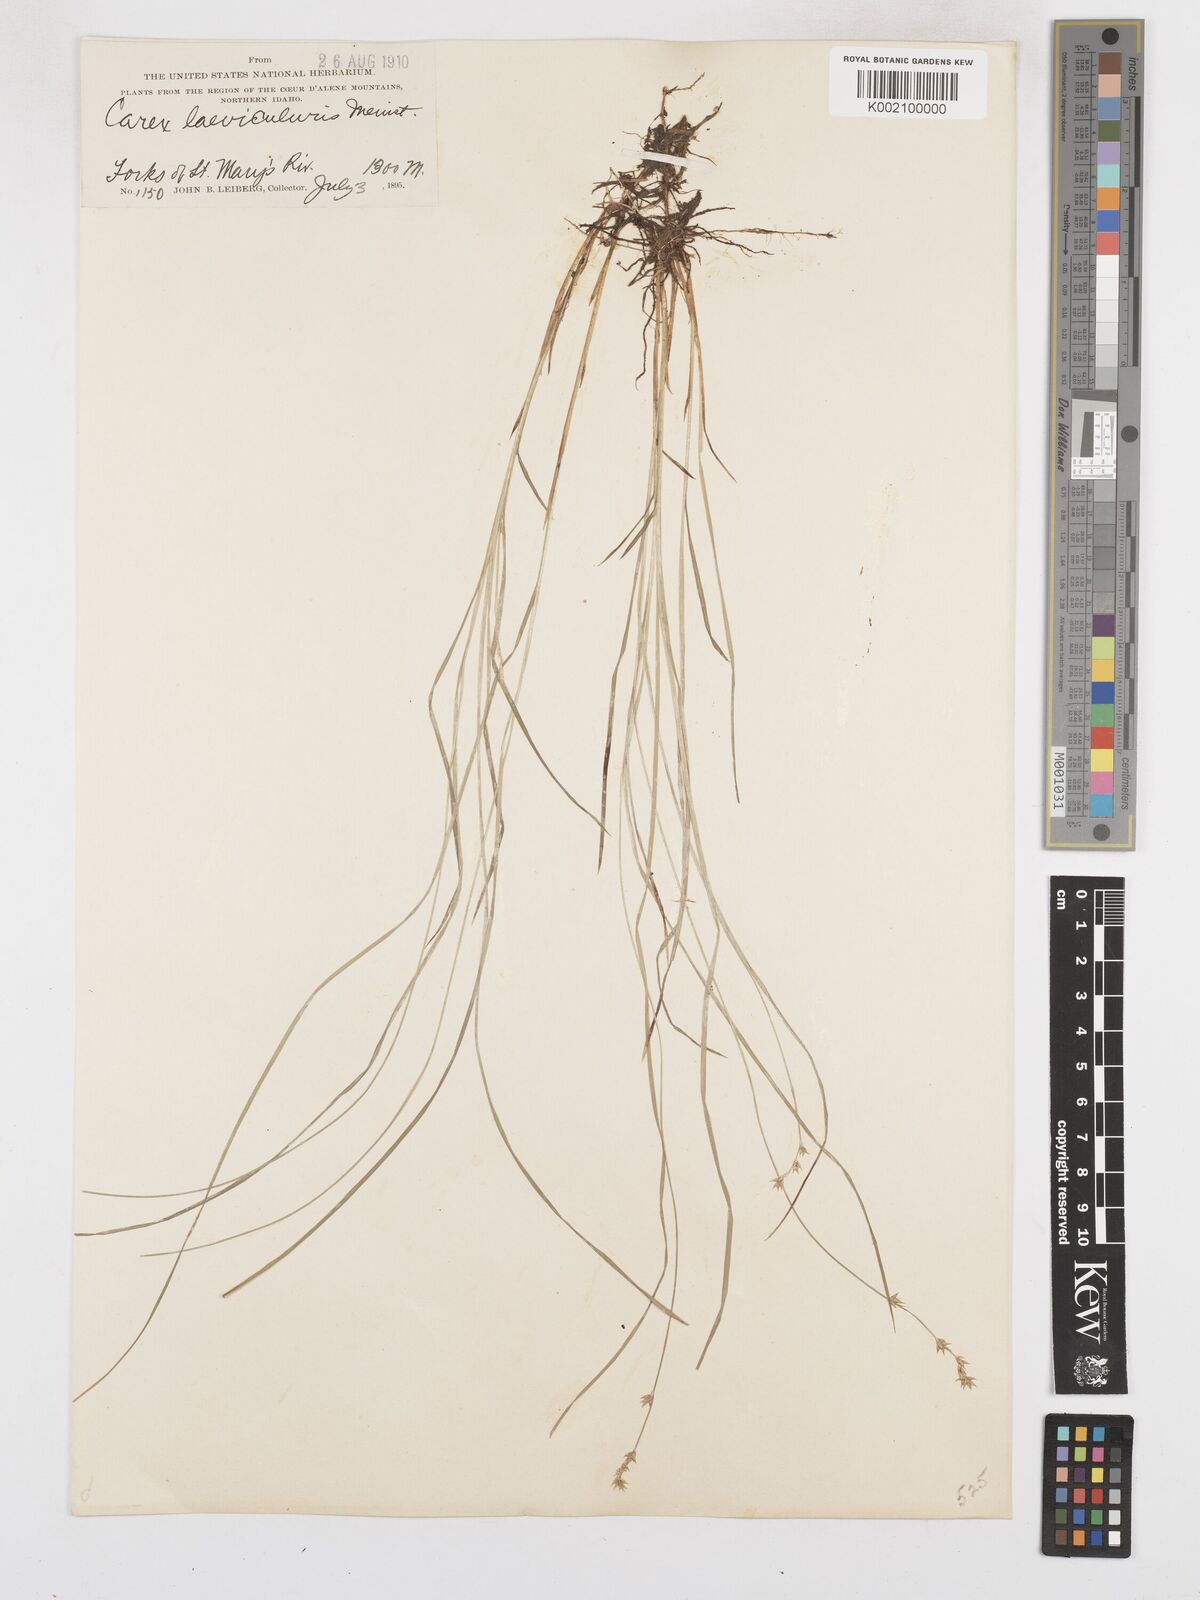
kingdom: Plantae
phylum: Tracheophyta
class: Liliopsida
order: Poales
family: Cyperaceae
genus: Carex
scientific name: Carex laeviculmis
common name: Smooth sedge
